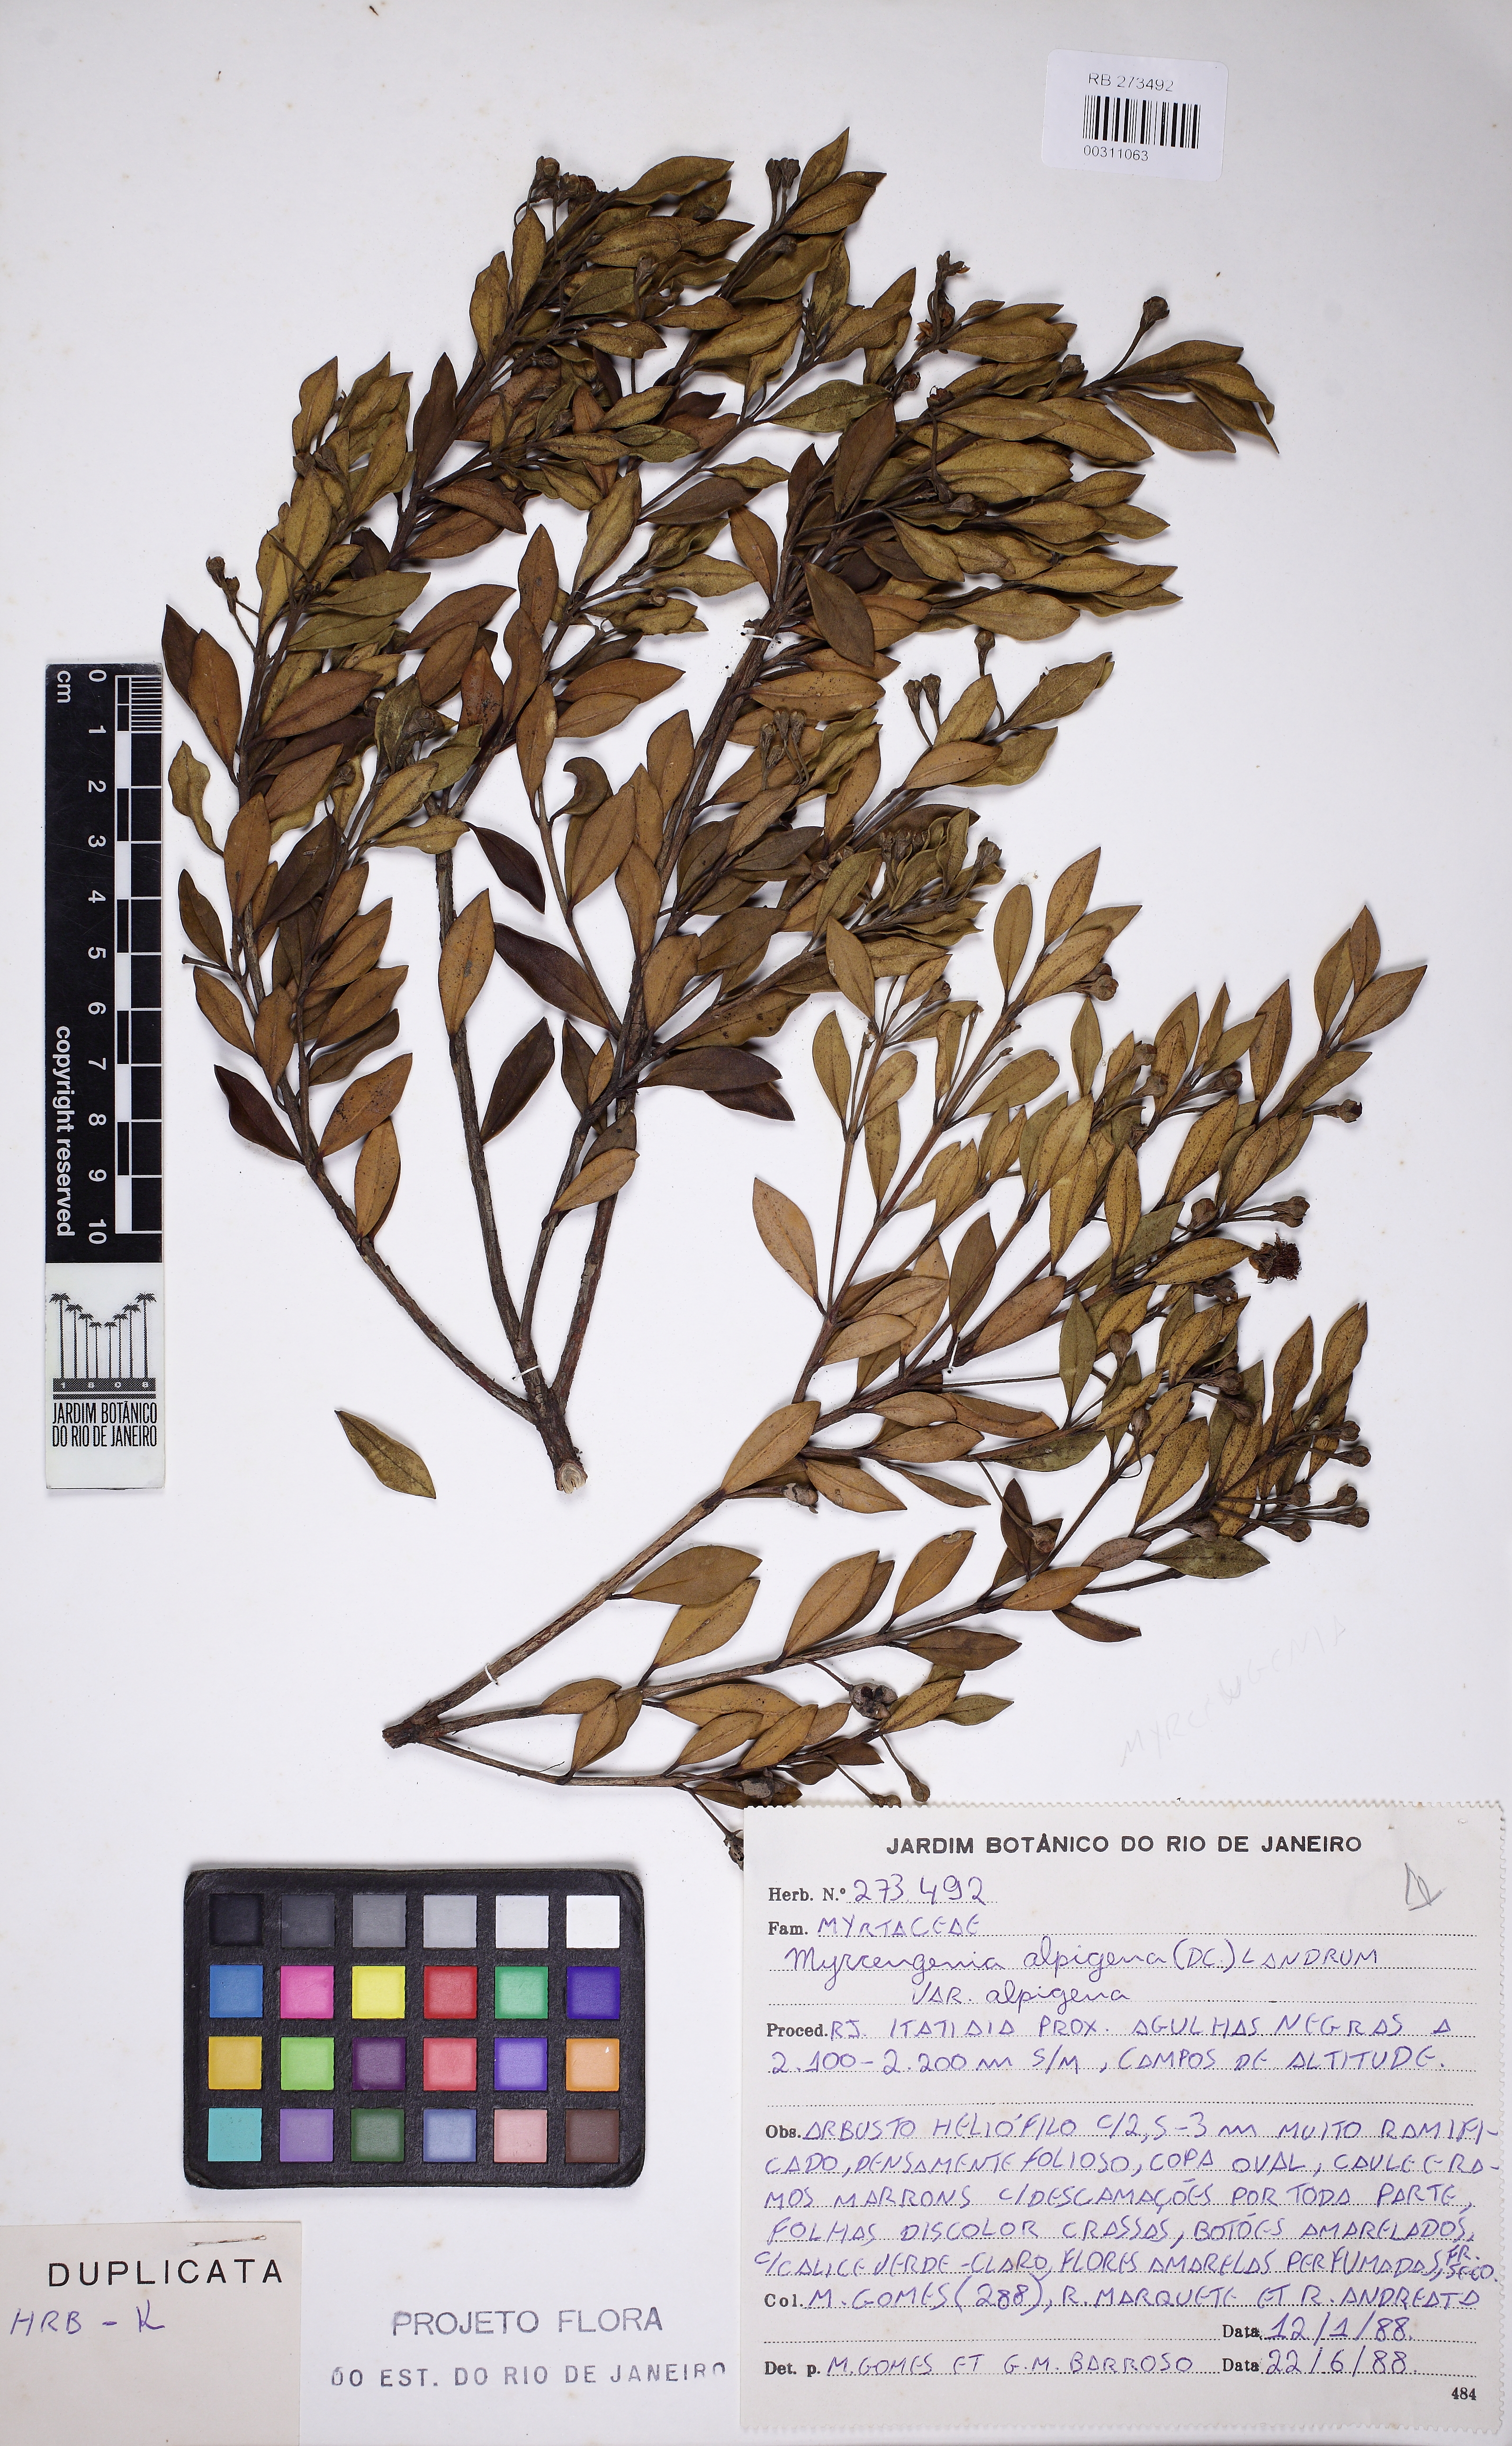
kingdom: Plantae
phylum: Tracheophyta
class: Magnoliopsida
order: Myrtales
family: Myrtaceae
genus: Myrceugenia
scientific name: Myrceugenia alpigena
